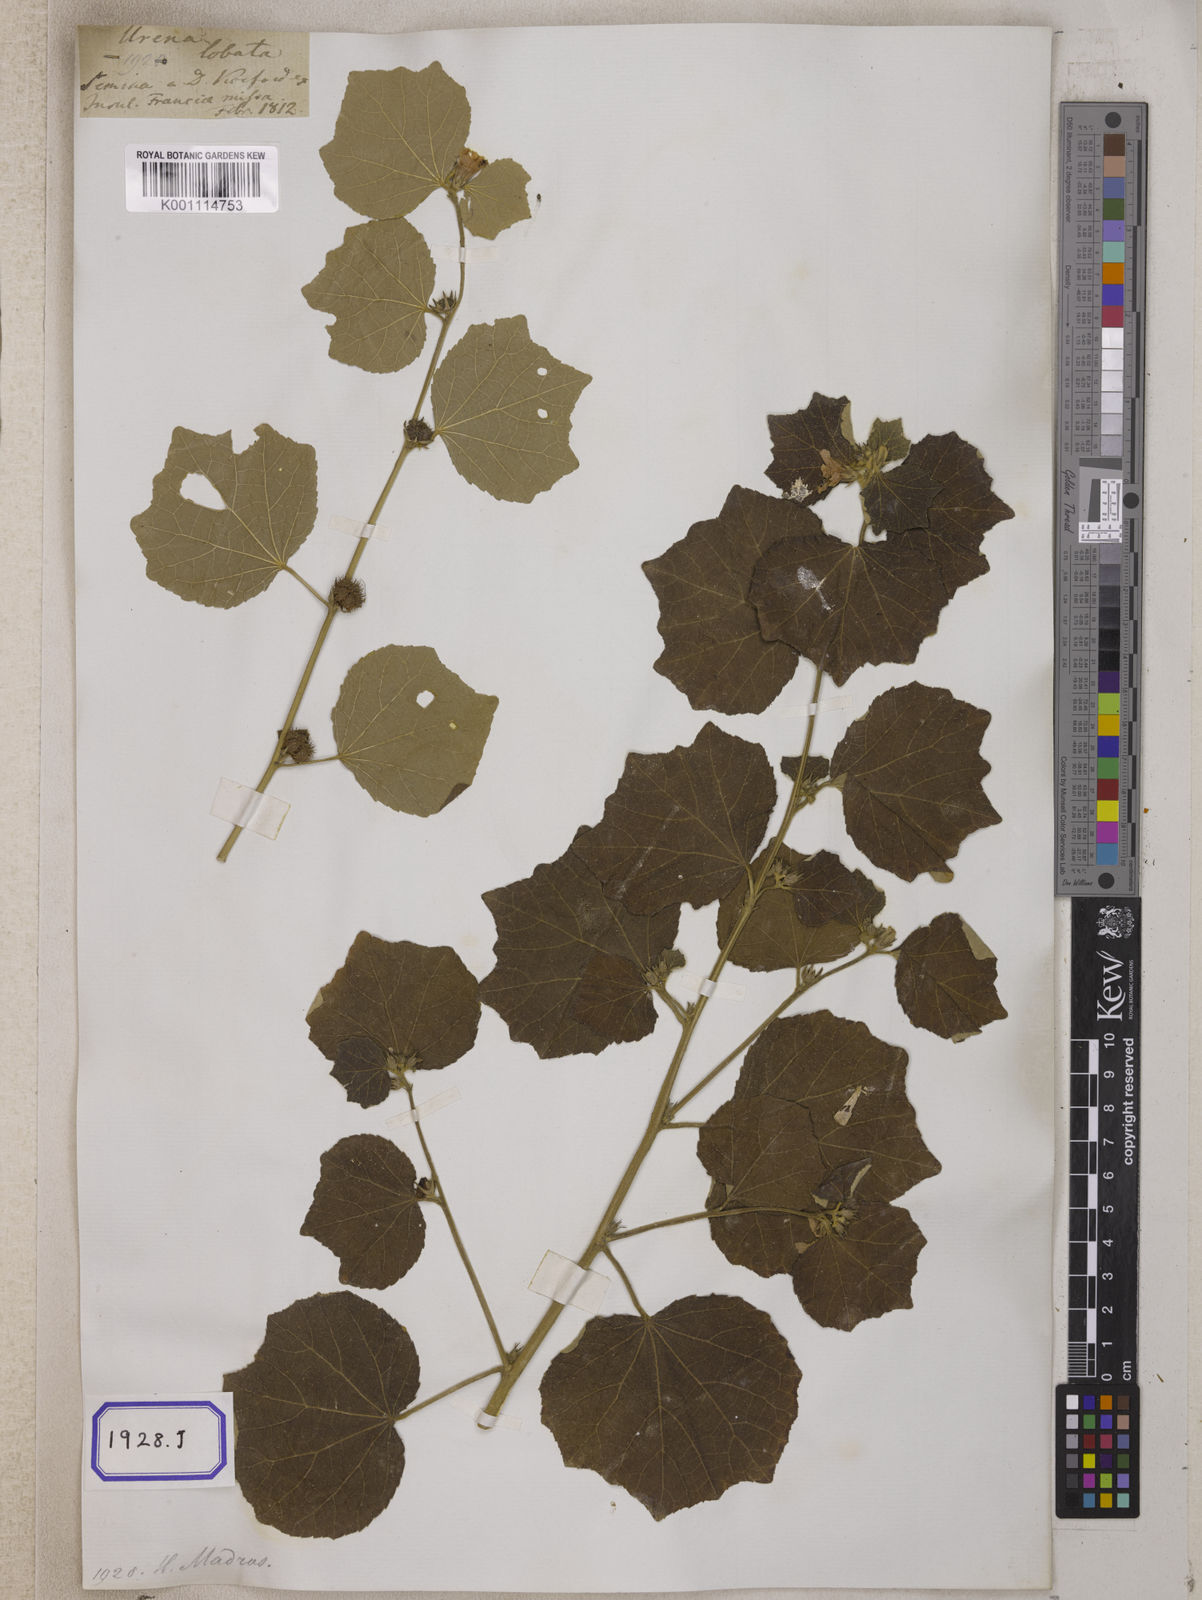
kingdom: Plantae
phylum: Tracheophyta
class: Magnoliopsida
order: Malvales
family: Malvaceae
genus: Urena
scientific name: Urena lobata
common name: Caesarweed
